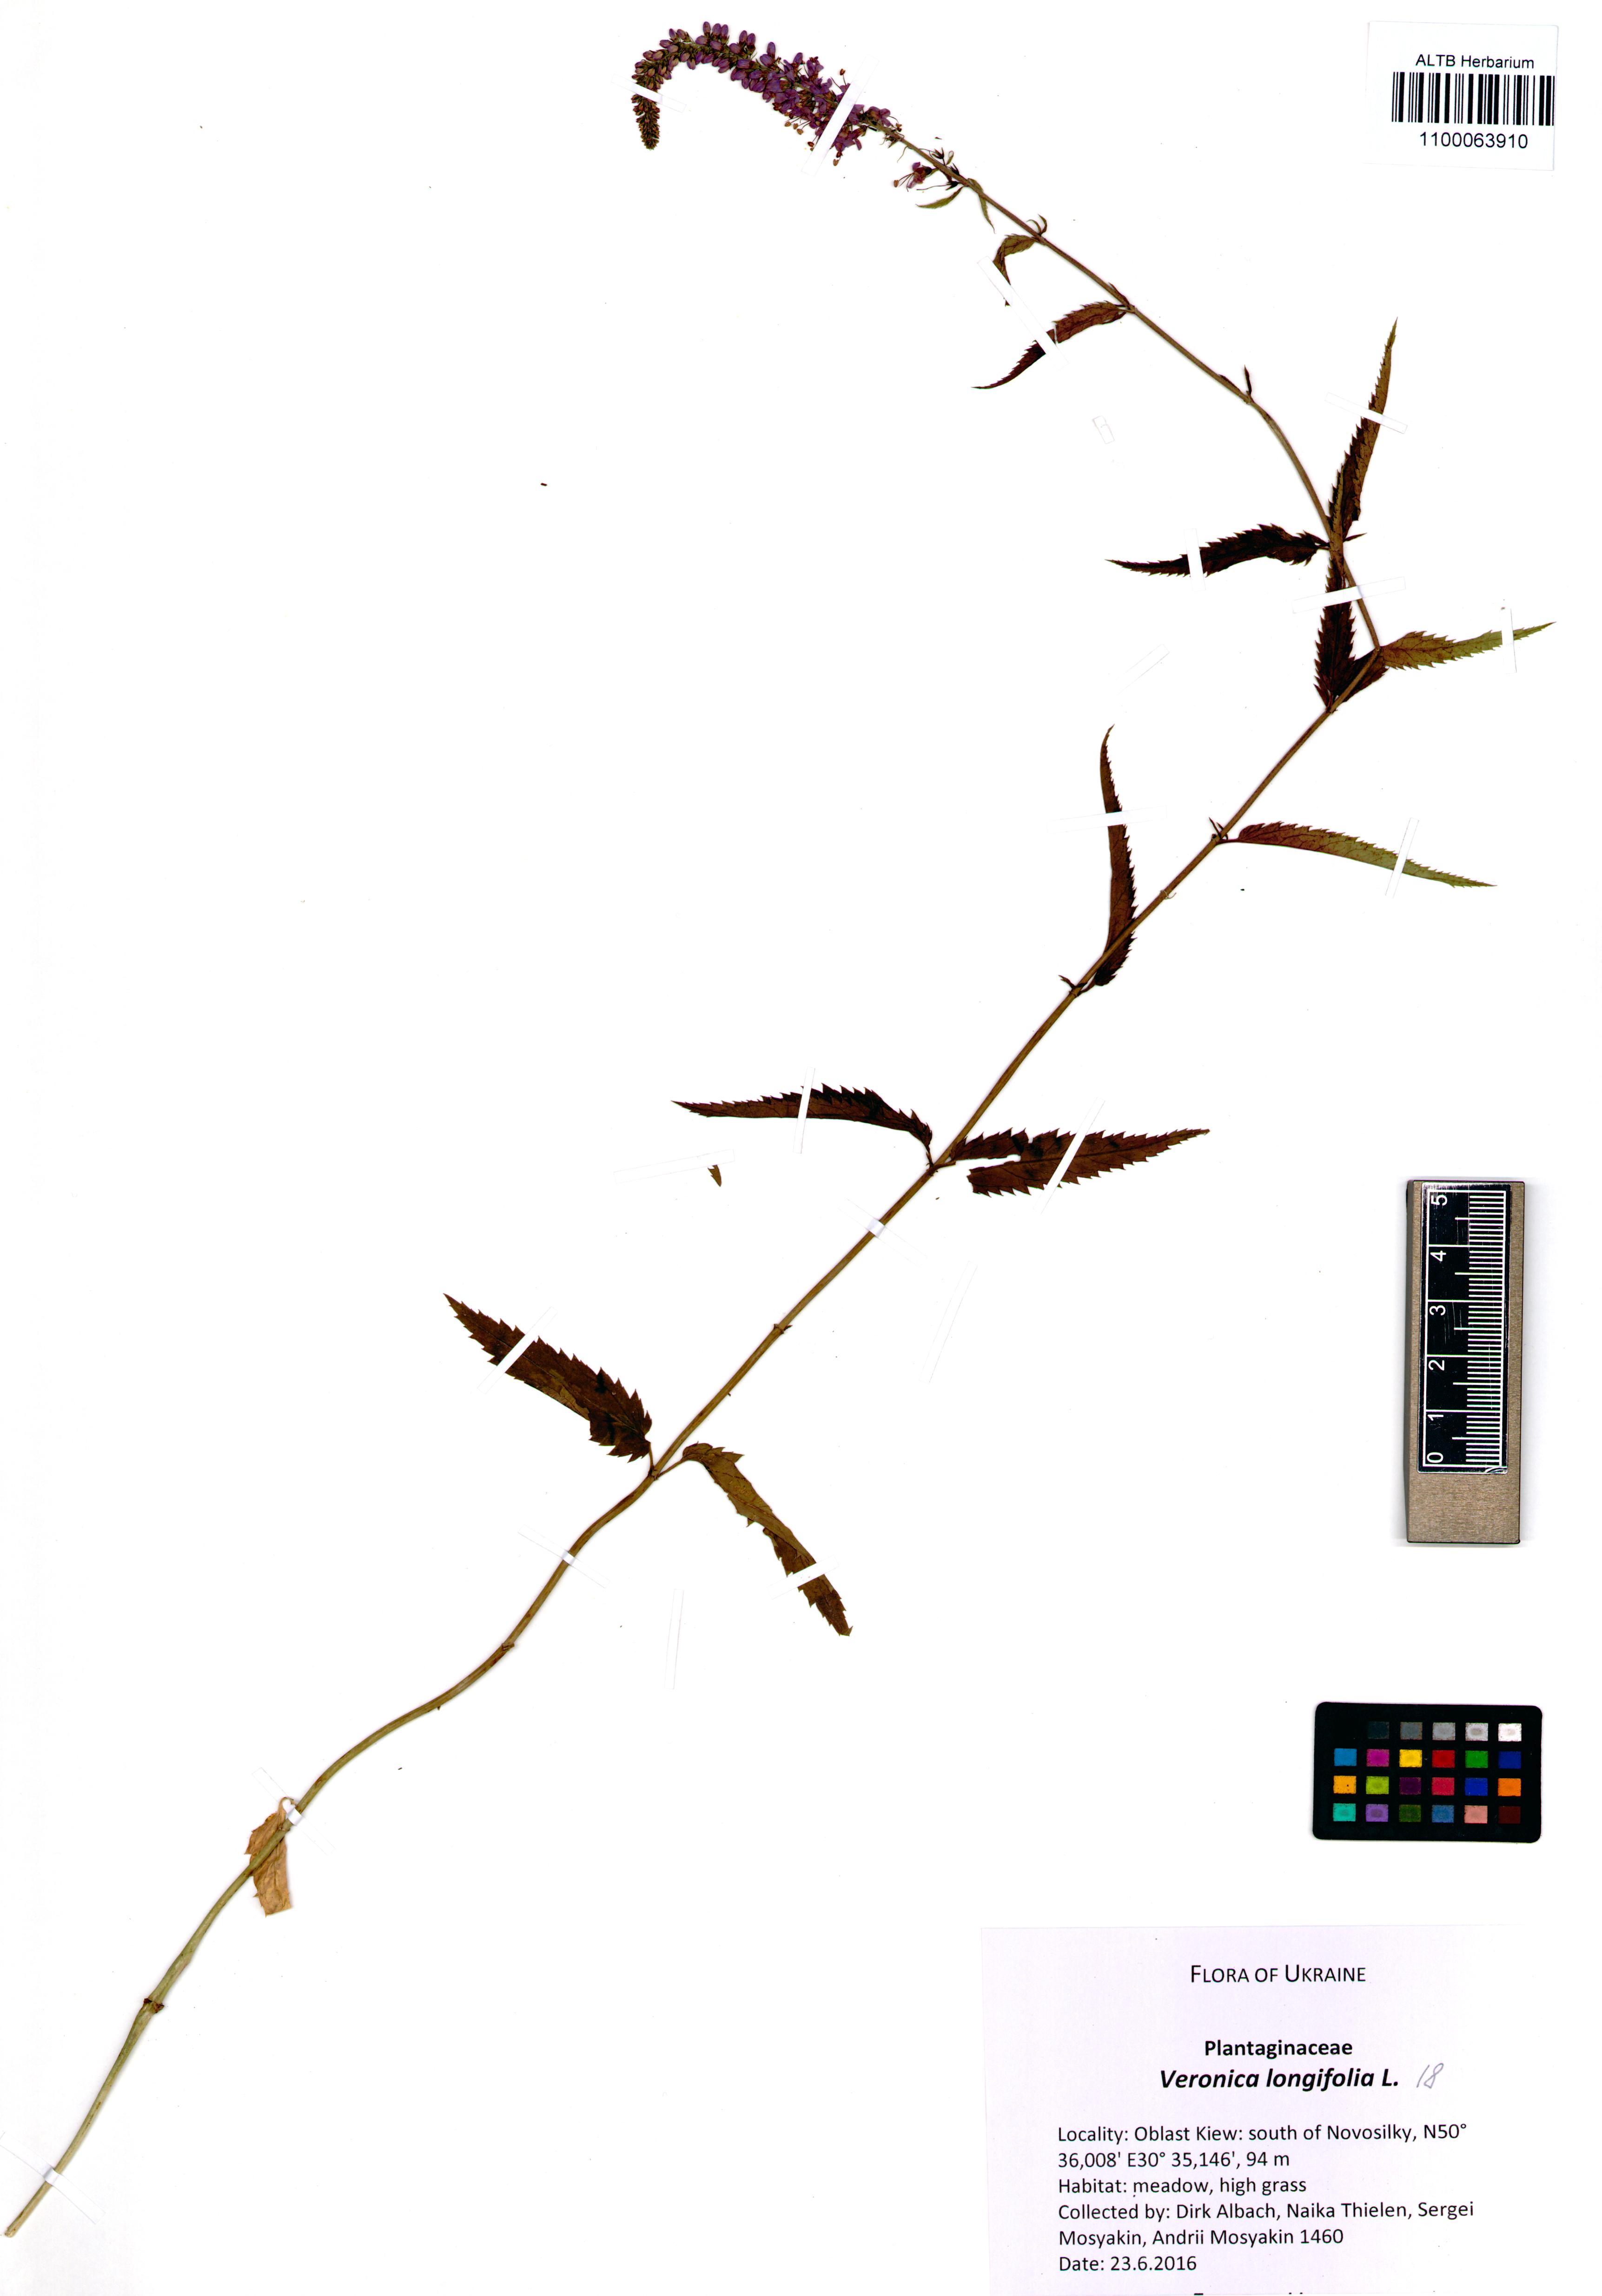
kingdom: Plantae
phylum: Tracheophyta
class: Magnoliopsida
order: Lamiales
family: Plantaginaceae
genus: Veronica
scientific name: Veronica longifolia
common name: Garden speedwell
